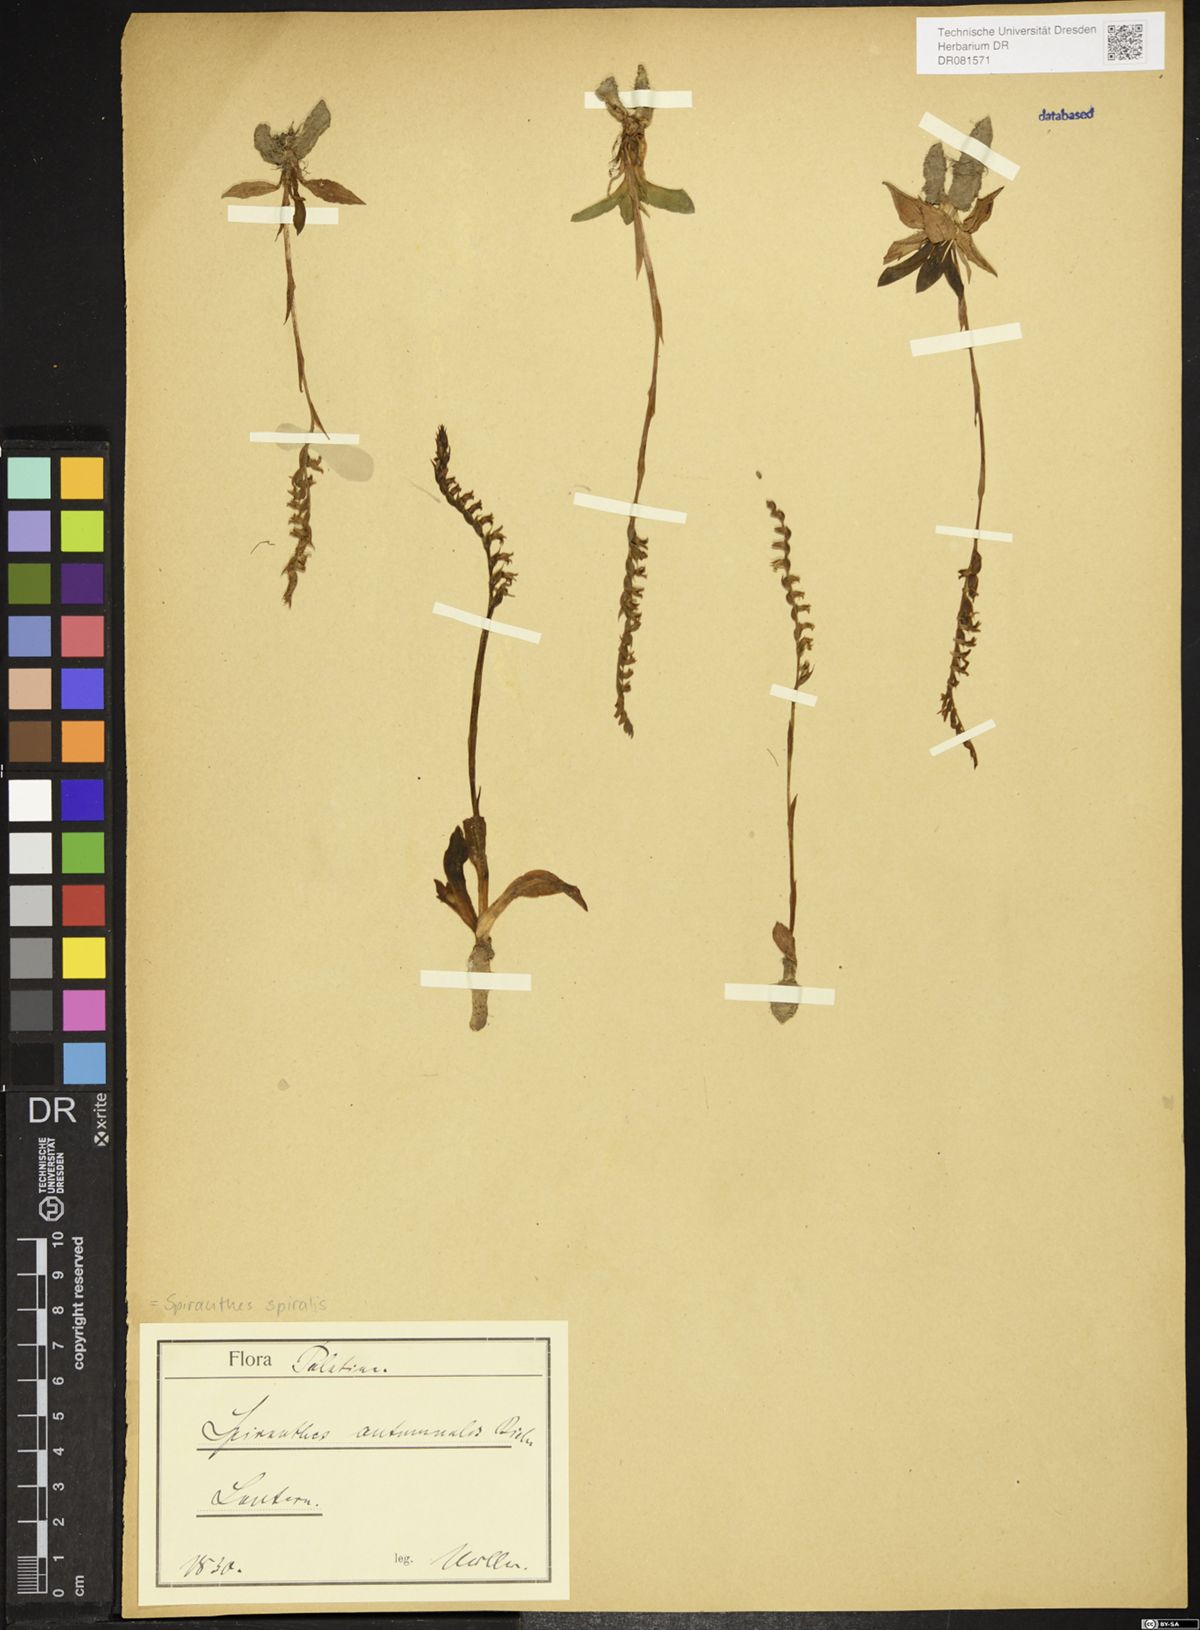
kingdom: Plantae
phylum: Tracheophyta
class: Liliopsida
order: Asparagales
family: Orchidaceae
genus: Spiranthes
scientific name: Spiranthes spiralis
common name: Autumn lady's-tresses
